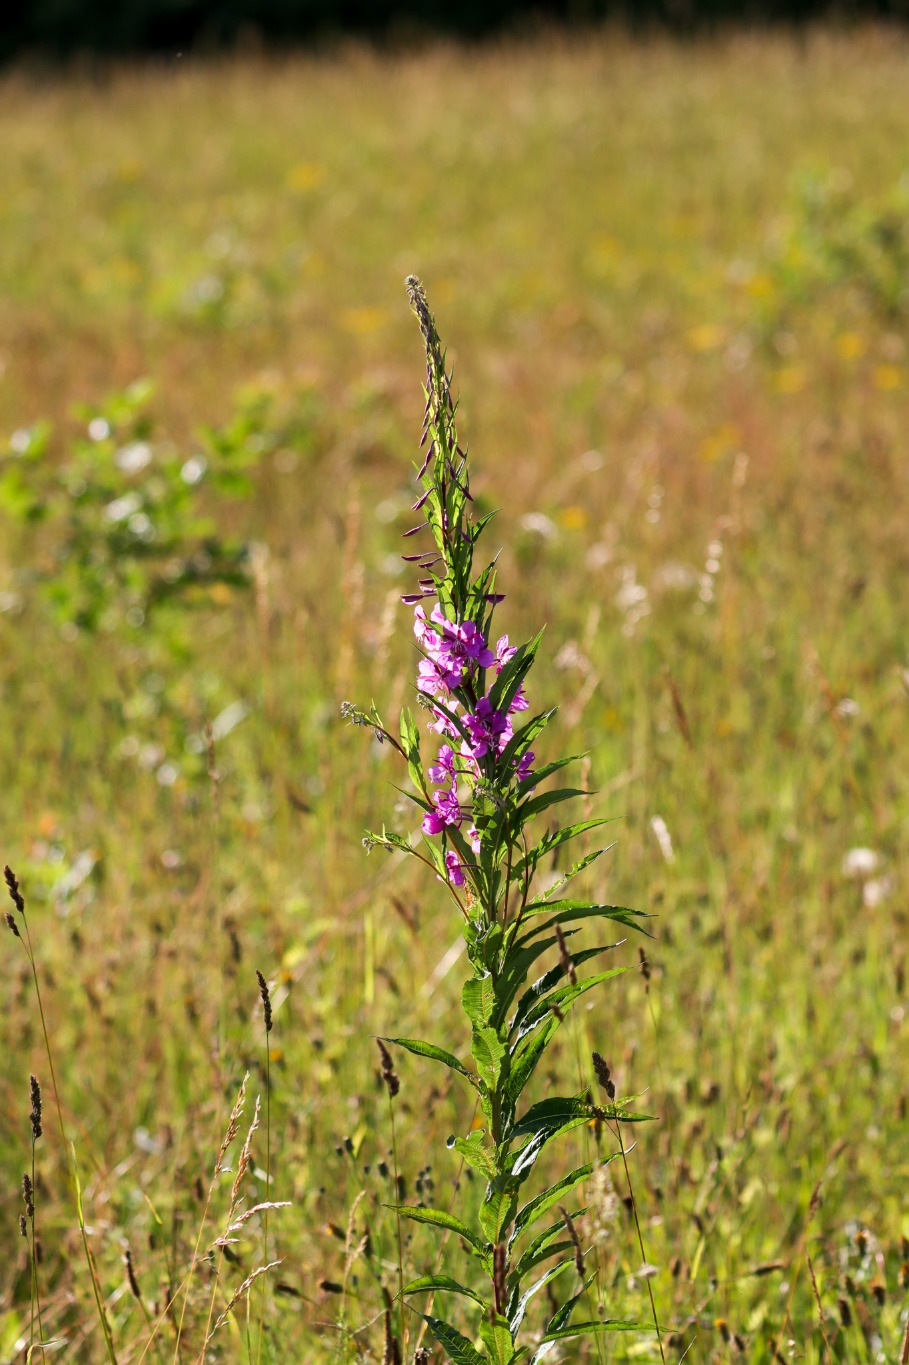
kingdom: Plantae
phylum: Tracheophyta
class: Magnoliopsida
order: Myrtales
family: Onagraceae
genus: Chamaenerion
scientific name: Chamaenerion angustifolium
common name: Gederams
